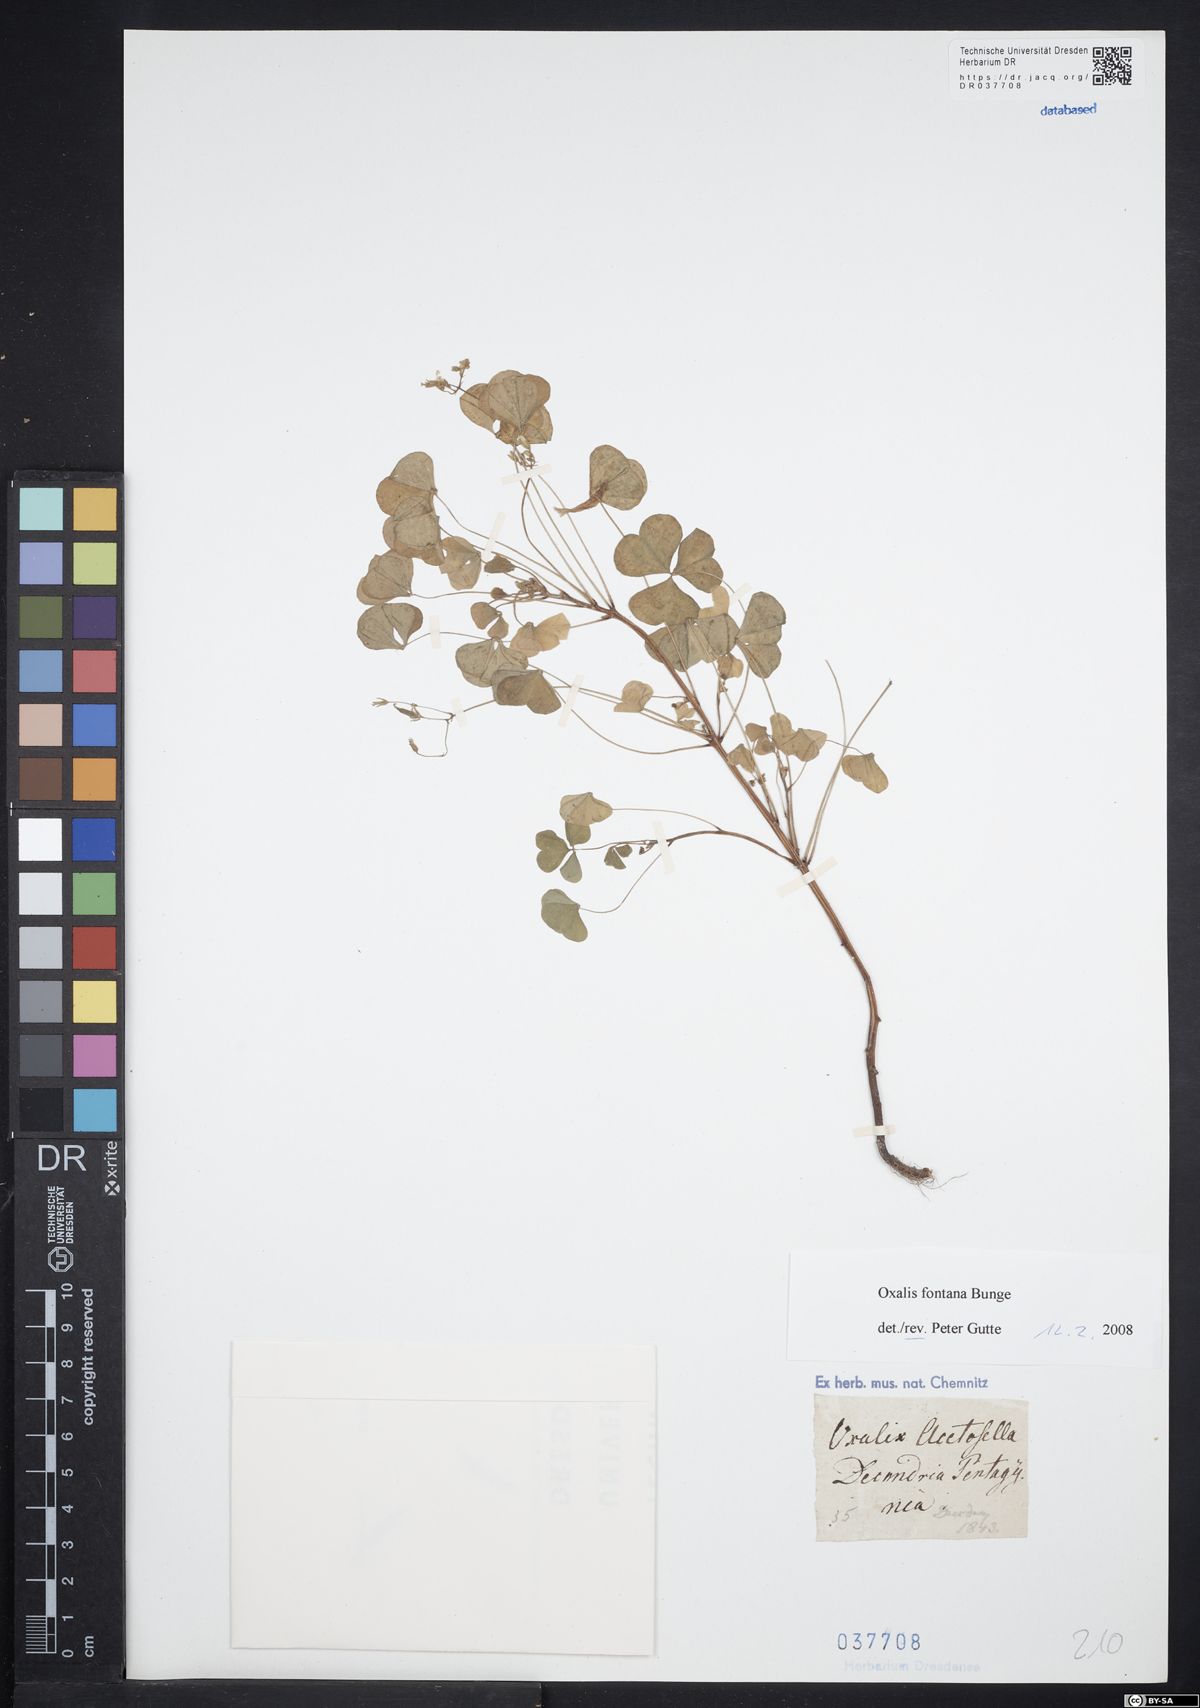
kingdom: Plantae
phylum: Tracheophyta
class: Magnoliopsida
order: Oxalidales
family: Oxalidaceae
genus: Oxalis
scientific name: Oxalis stricta
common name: Upright yellow-sorrel
